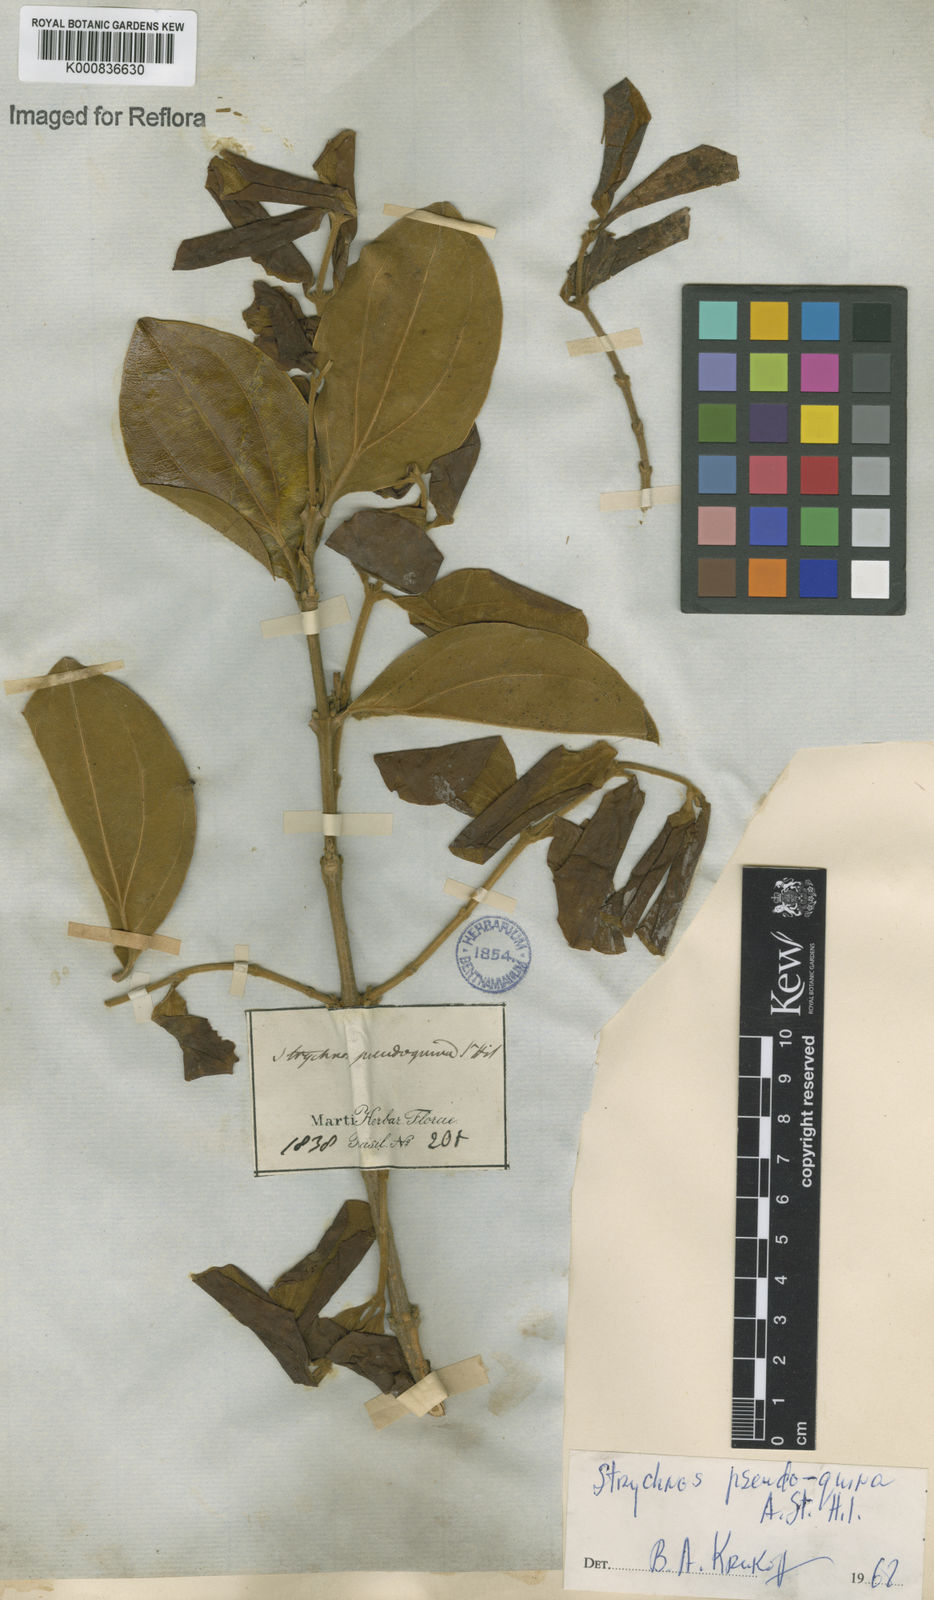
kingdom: Plantae
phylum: Tracheophyta
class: Magnoliopsida
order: Gentianales
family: Loganiaceae
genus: Strychnos
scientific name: Strychnos pseudoquina
